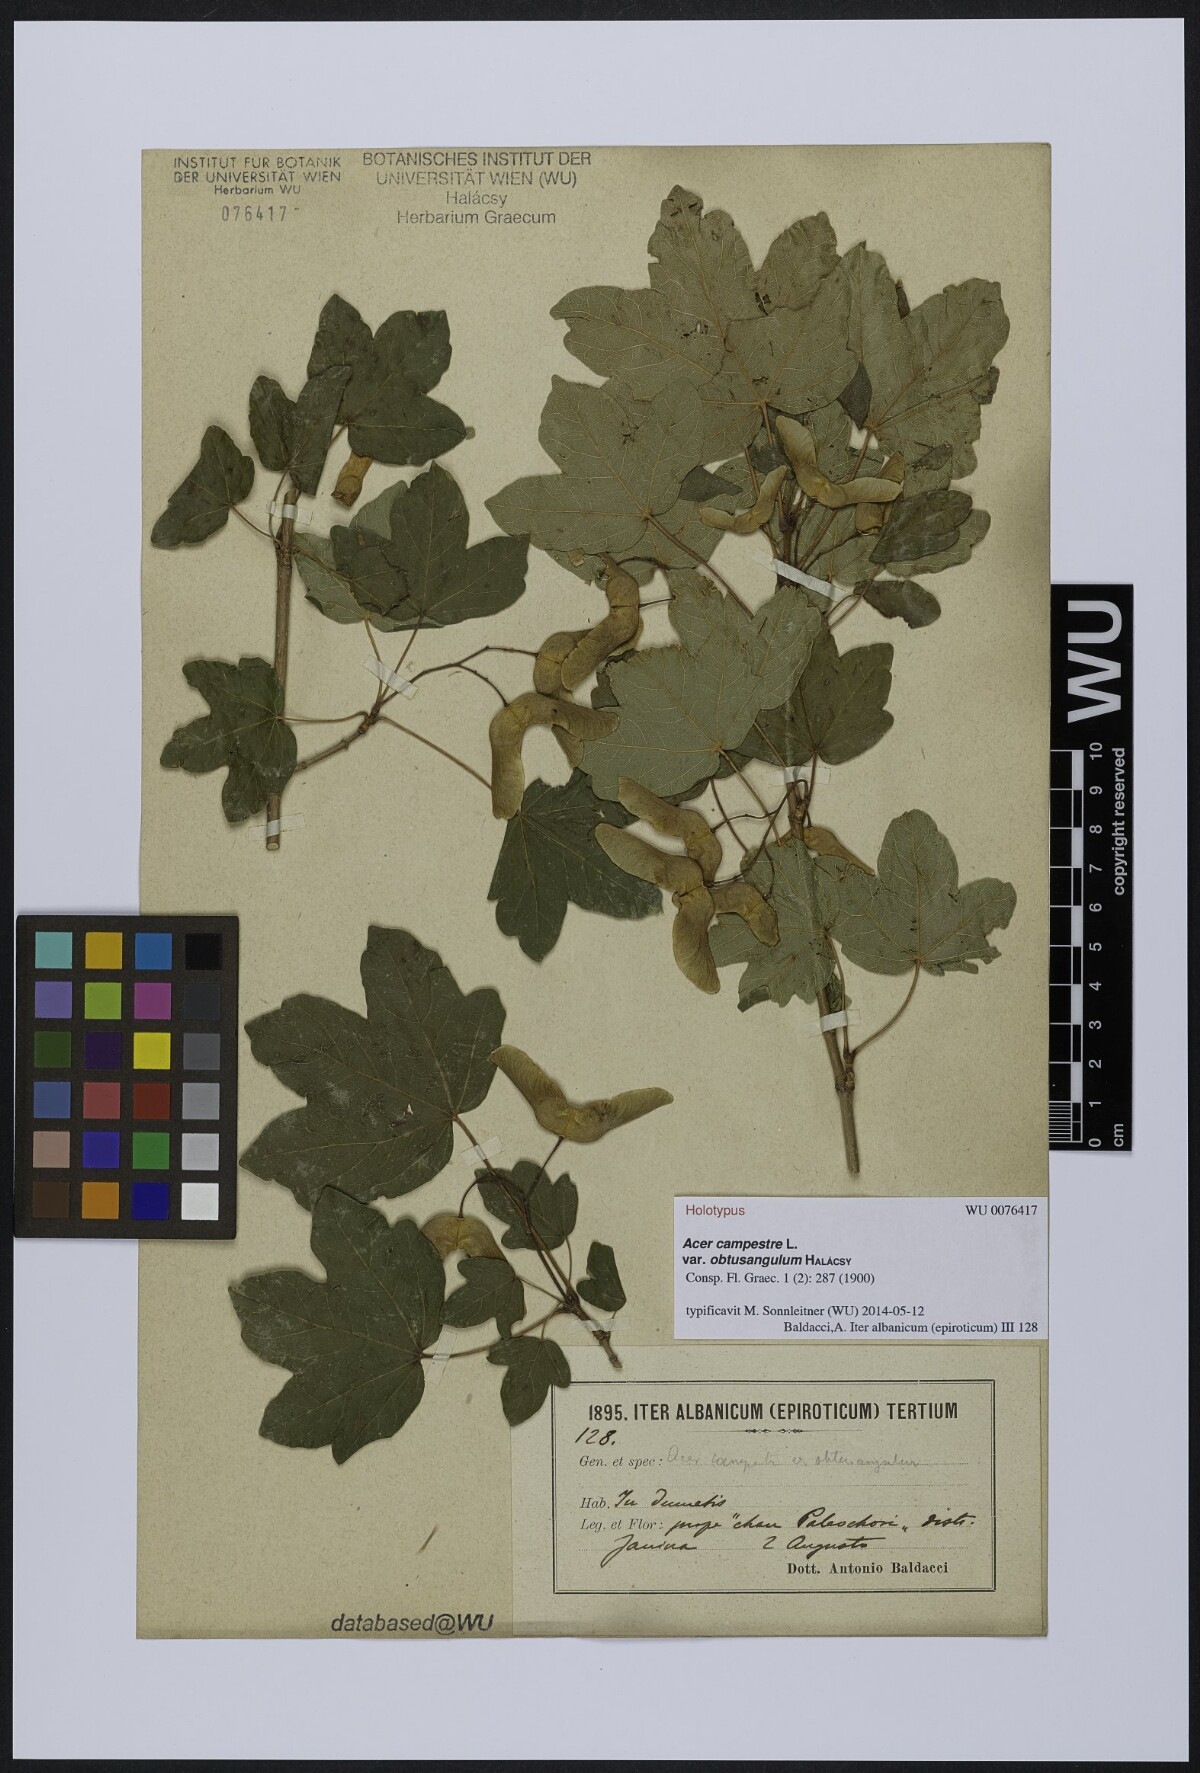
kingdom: Plantae
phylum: Tracheophyta
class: Magnoliopsida
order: Sapindales
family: Sapindaceae
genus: Acer
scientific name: Acer campestre
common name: Field maple
